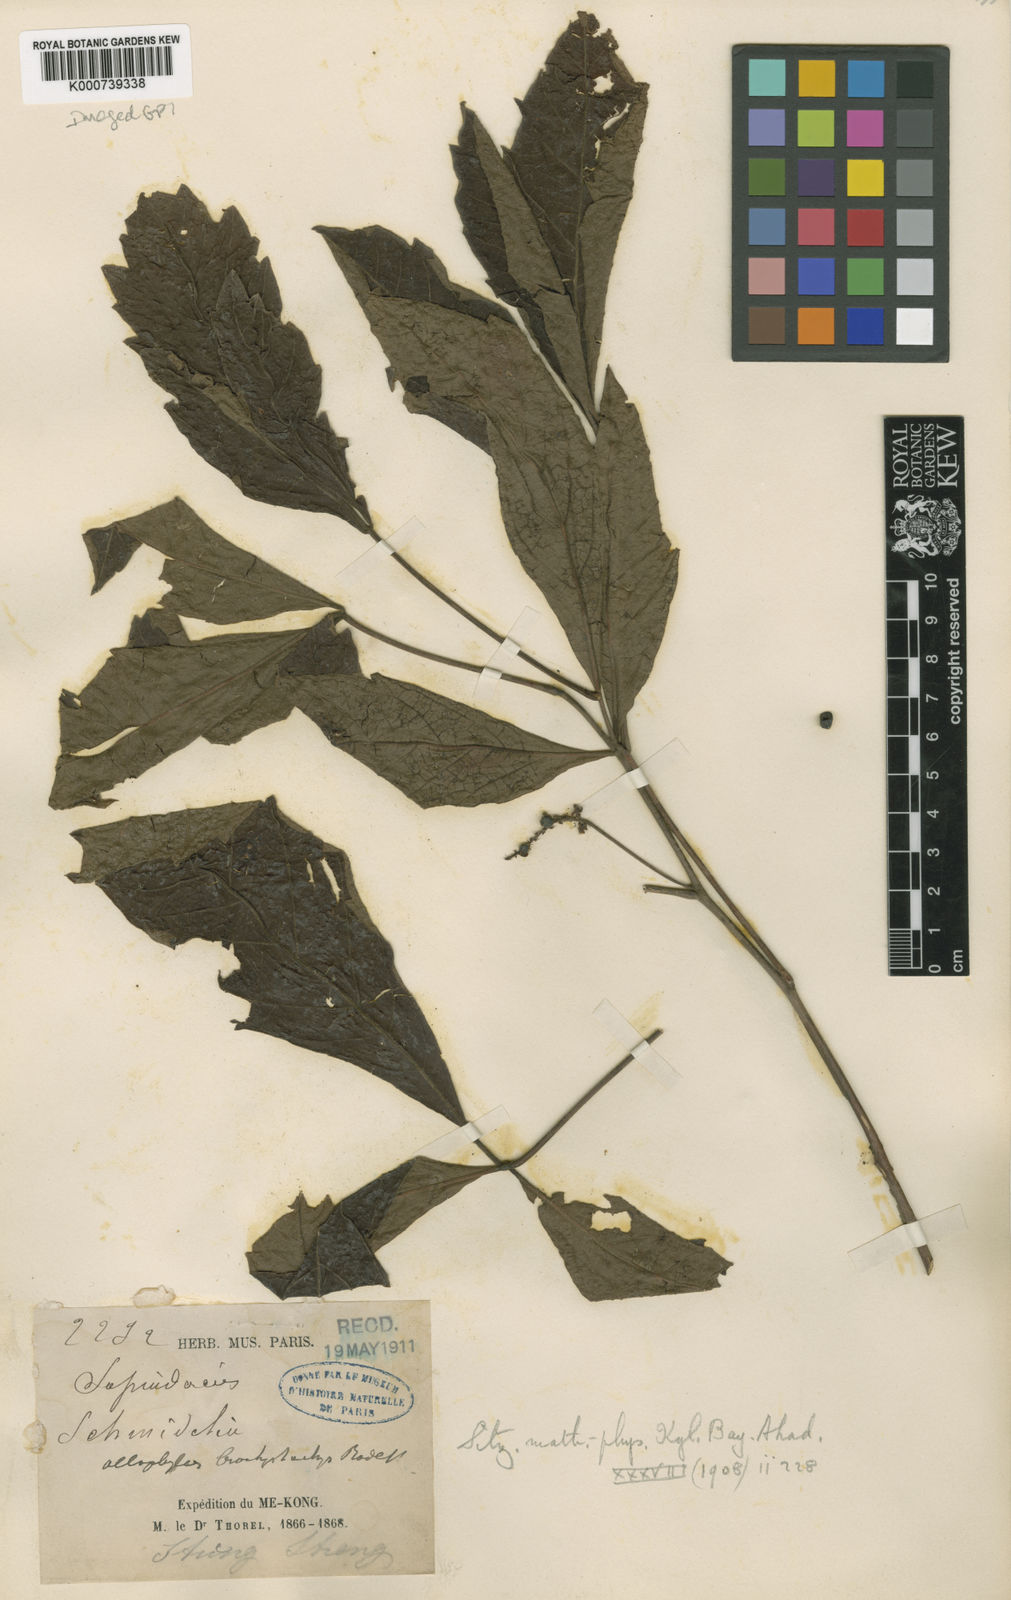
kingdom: Plantae
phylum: Tracheophyta
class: Magnoliopsida
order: Sapindales
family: Sapindaceae
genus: Allophylus
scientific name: Allophylus brachystachys
